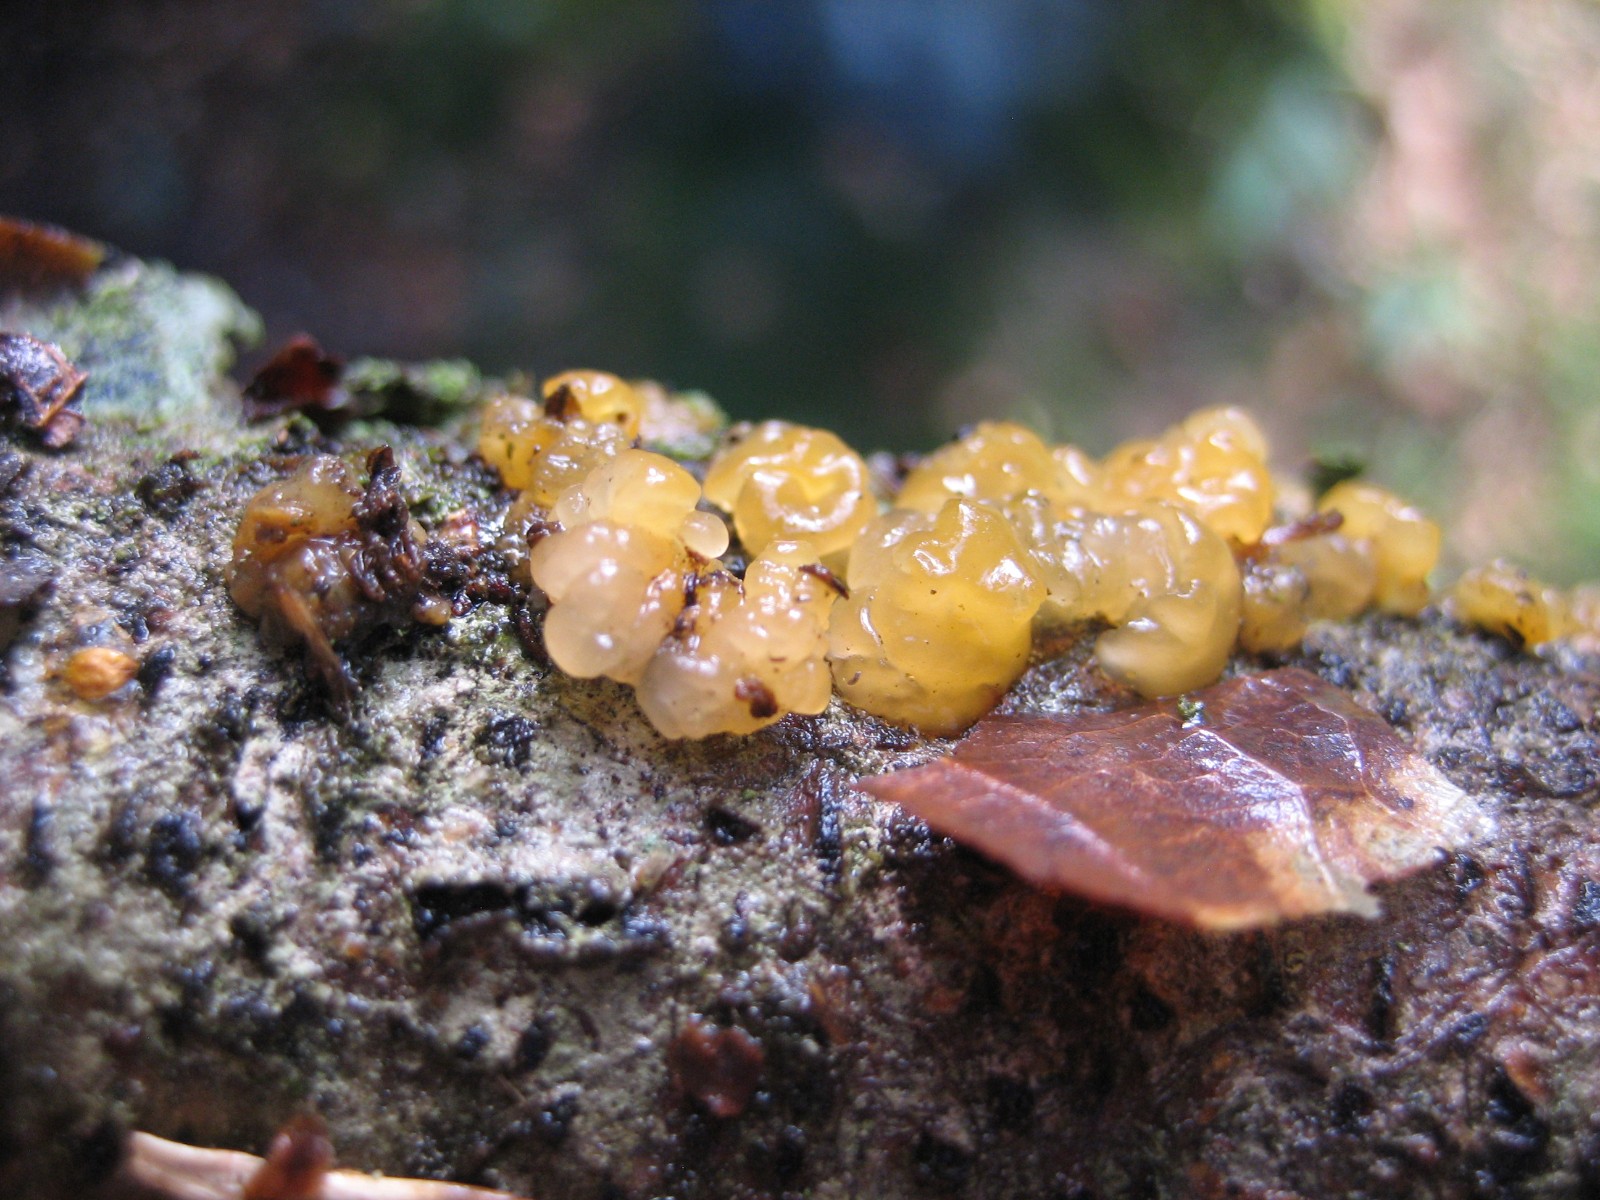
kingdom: Fungi
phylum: Basidiomycota
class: Dacrymycetes
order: Dacrymycetales
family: Dacrymycetaceae
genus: Dacrymyces
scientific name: Dacrymyces
